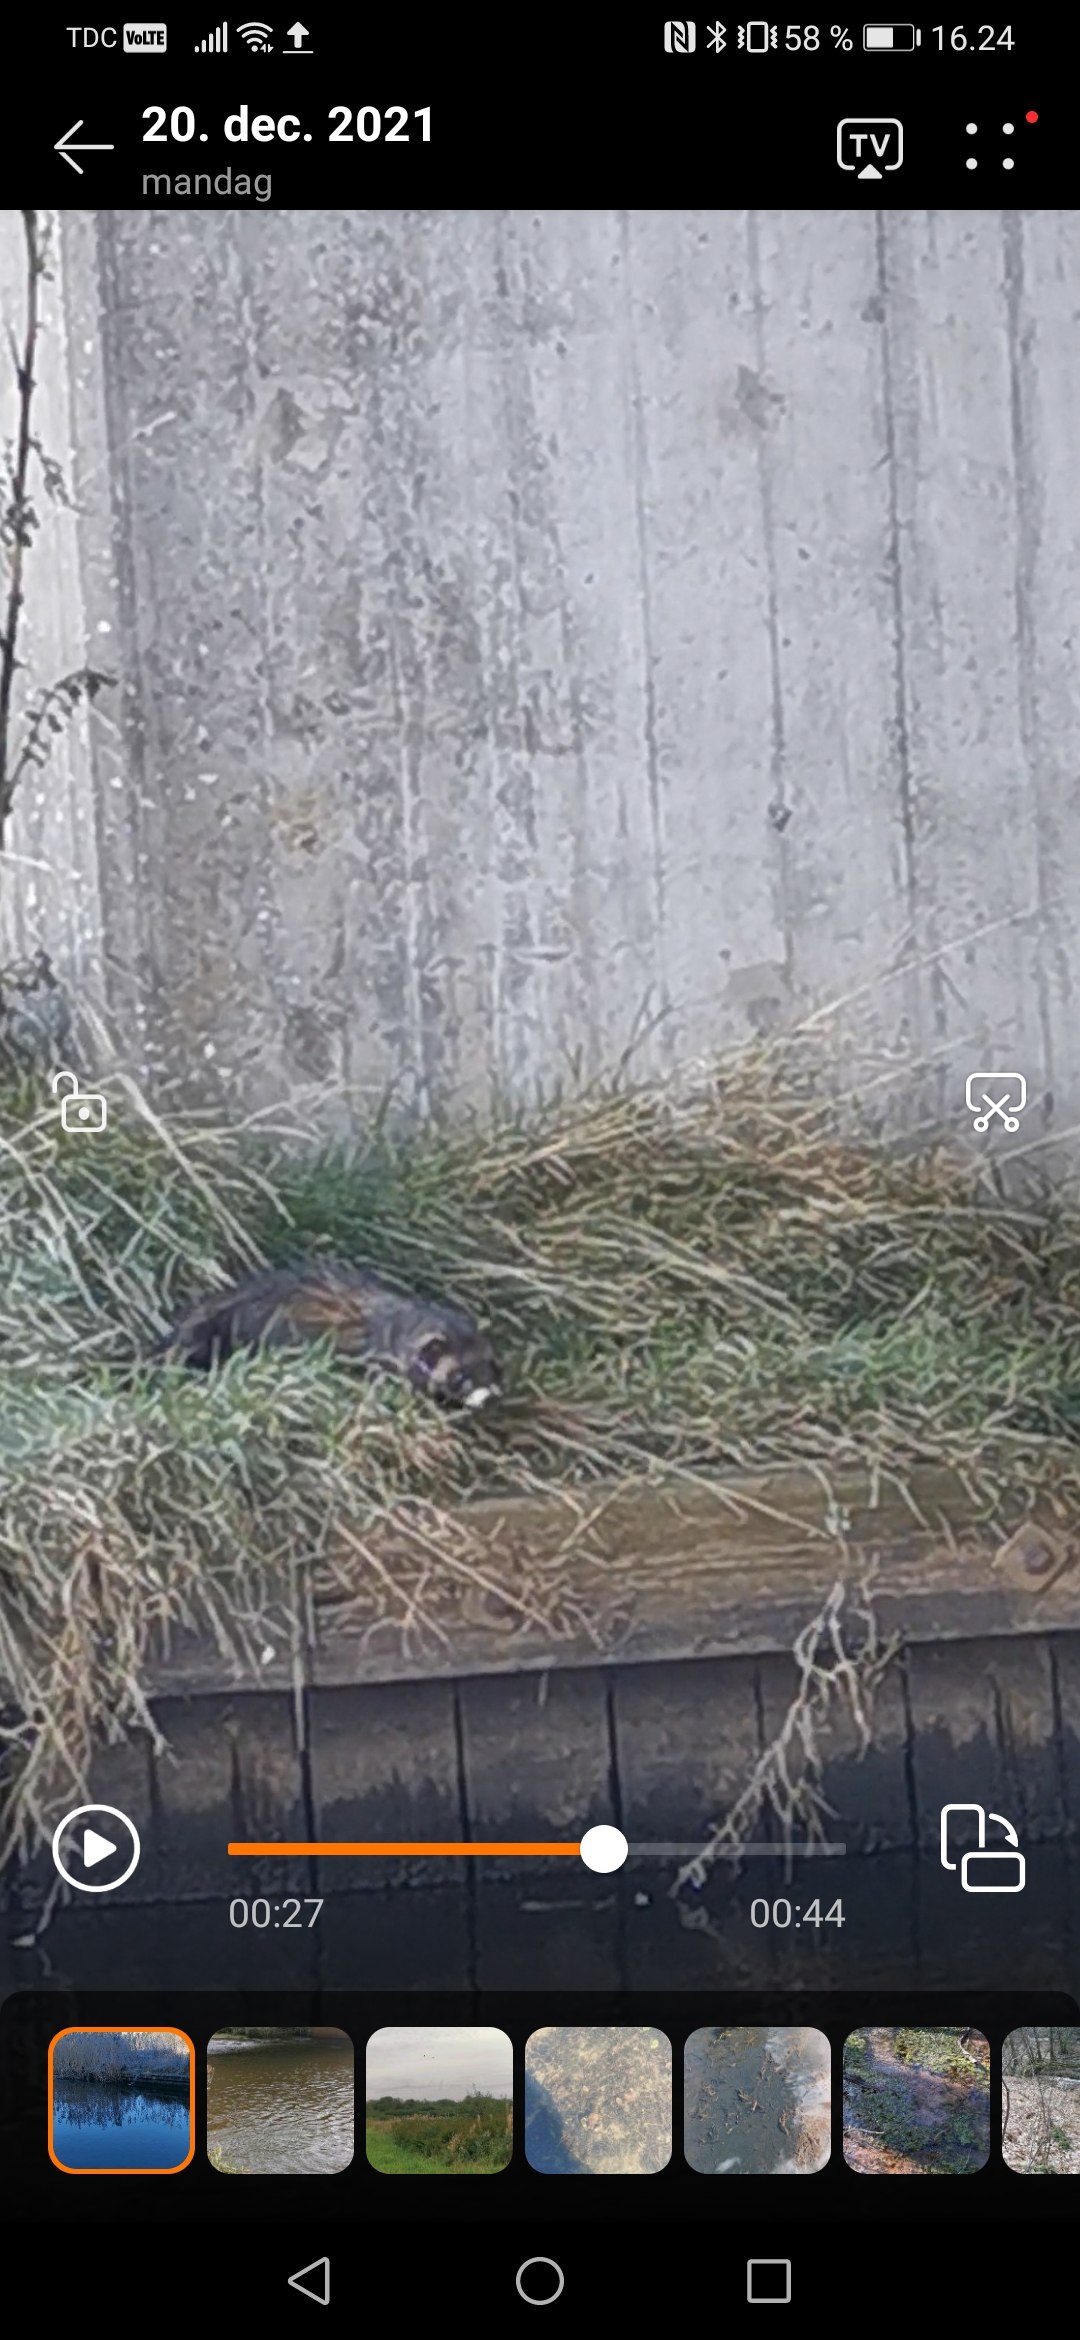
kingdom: Animalia
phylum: Chordata
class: Mammalia
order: Carnivora
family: Mustelidae
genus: Mustela
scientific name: Mustela putorius
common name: Ilder
